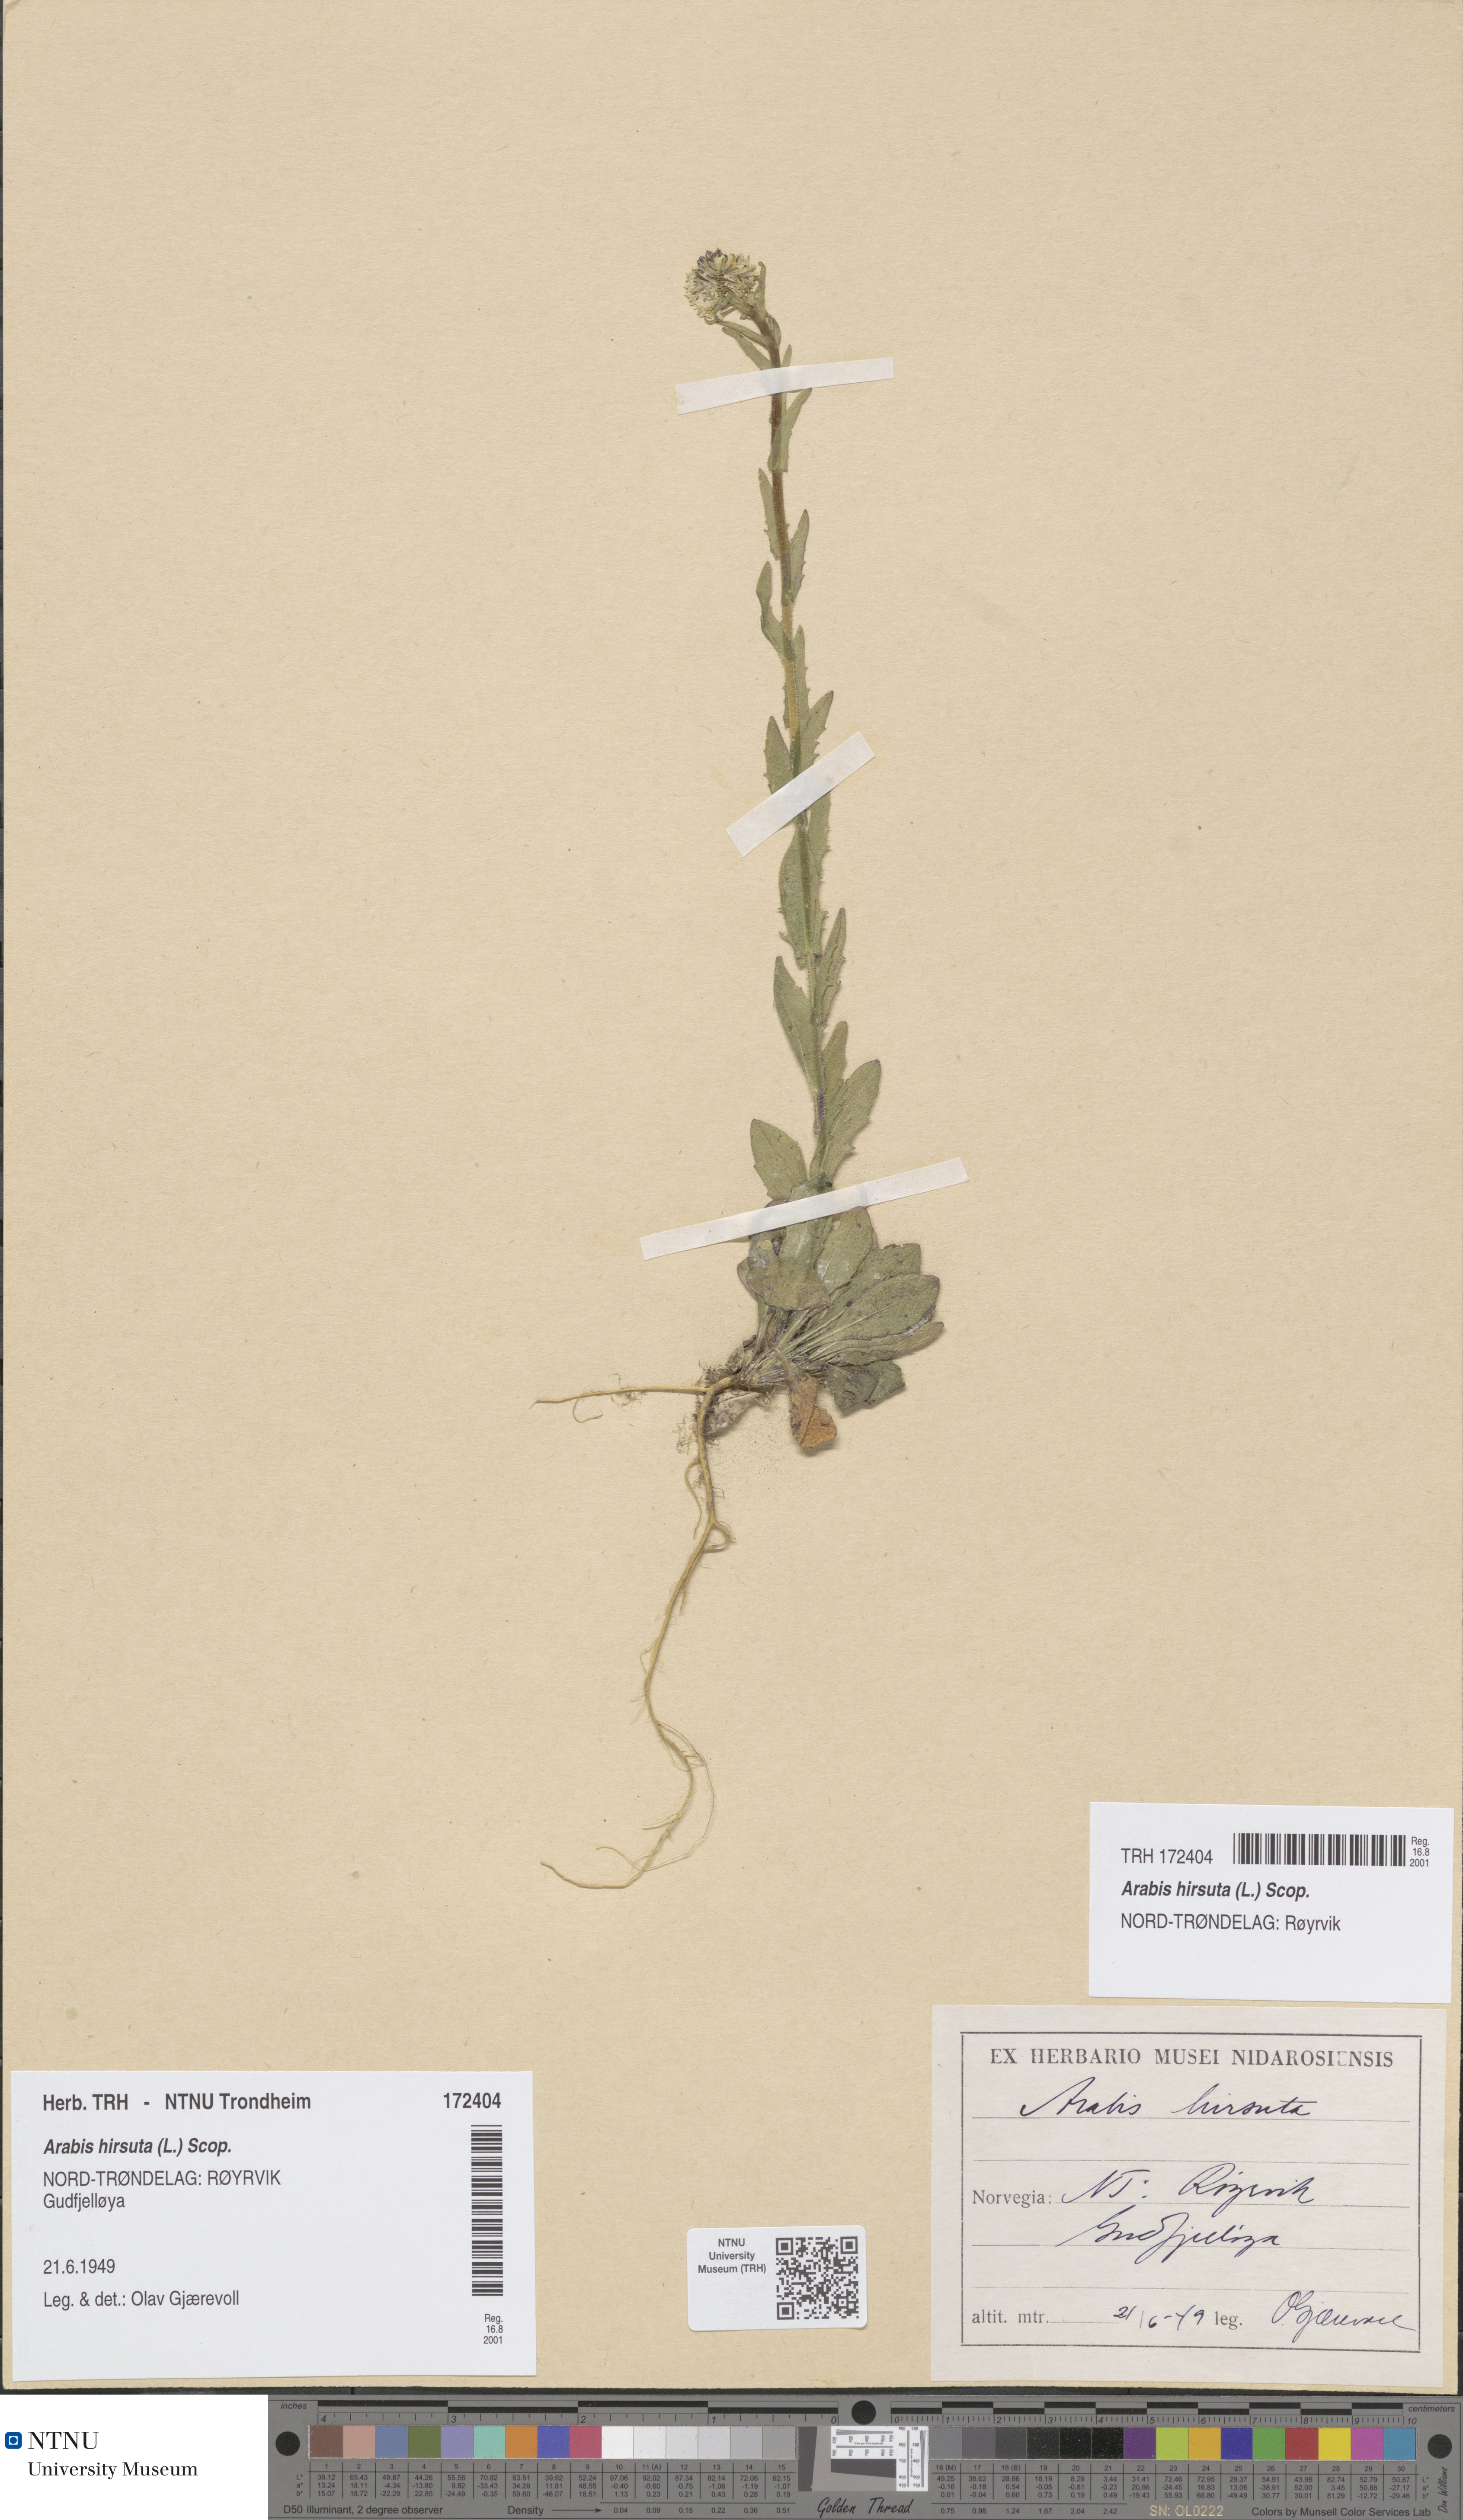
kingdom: Plantae
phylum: Tracheophyta
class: Magnoliopsida
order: Brassicales
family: Brassicaceae
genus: Arabis
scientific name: Arabis hirsuta
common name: Hairy rock-cress
